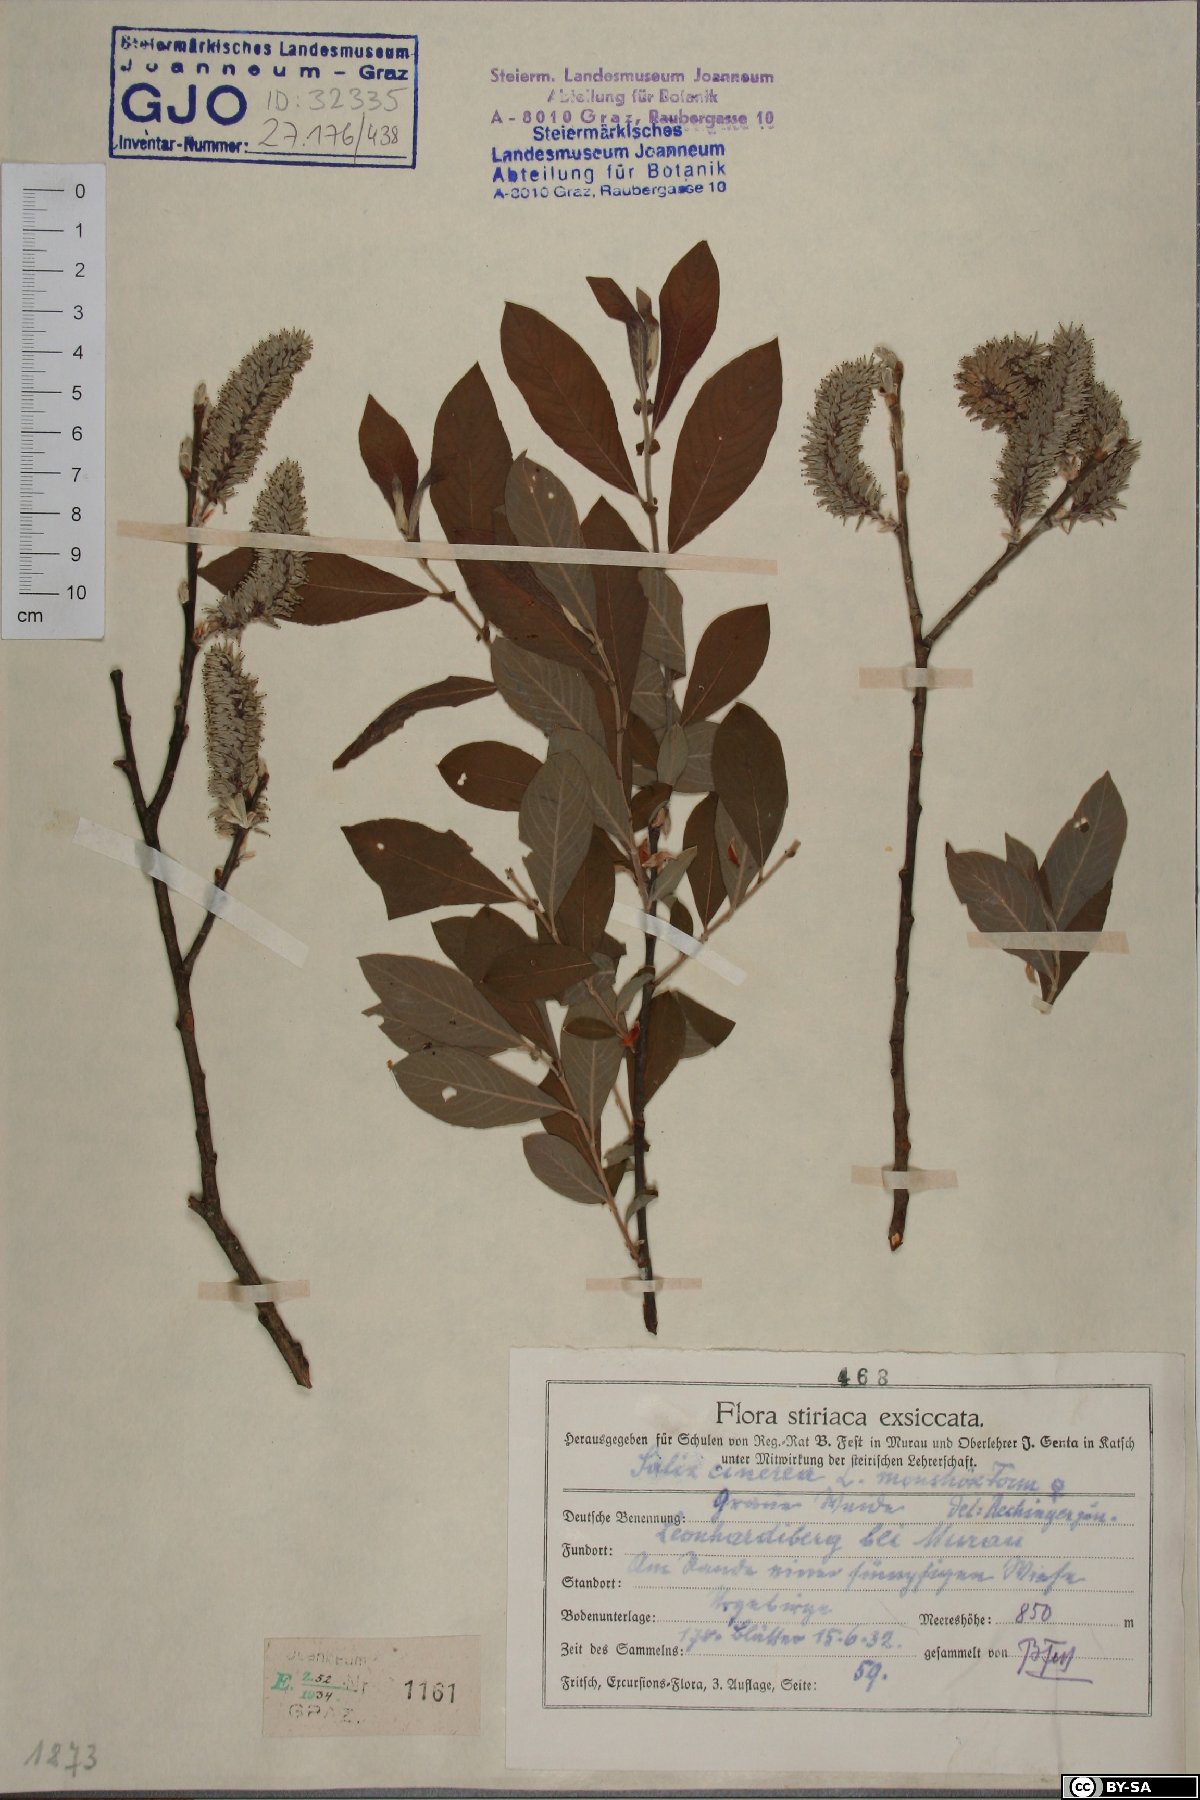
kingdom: Plantae
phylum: Tracheophyta
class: Magnoliopsida
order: Malpighiales
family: Salicaceae
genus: Salix
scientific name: Salix cinerea
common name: Common sallow
